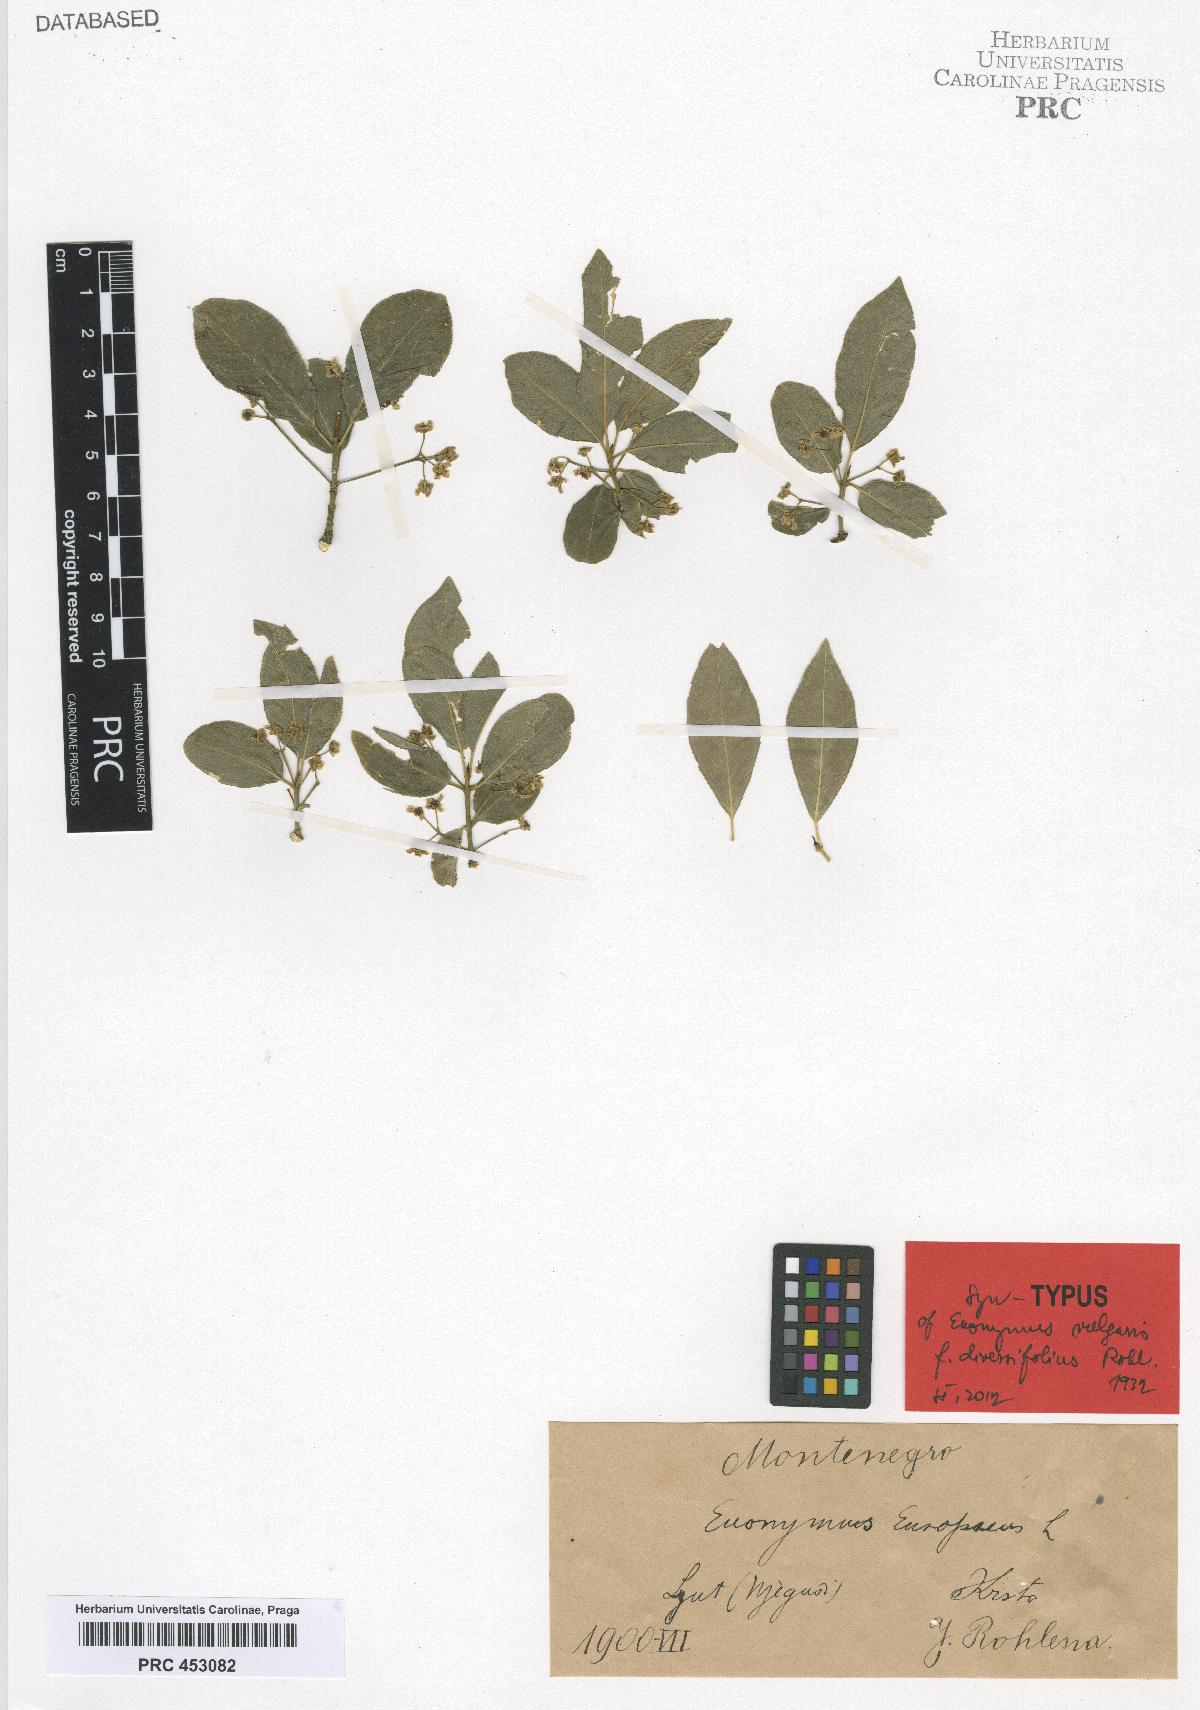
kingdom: Plantae
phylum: Tracheophyta
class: Magnoliopsida
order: Celastrales
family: Celastraceae
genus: Euonymus
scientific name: Euonymus europaeus
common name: Spindle
